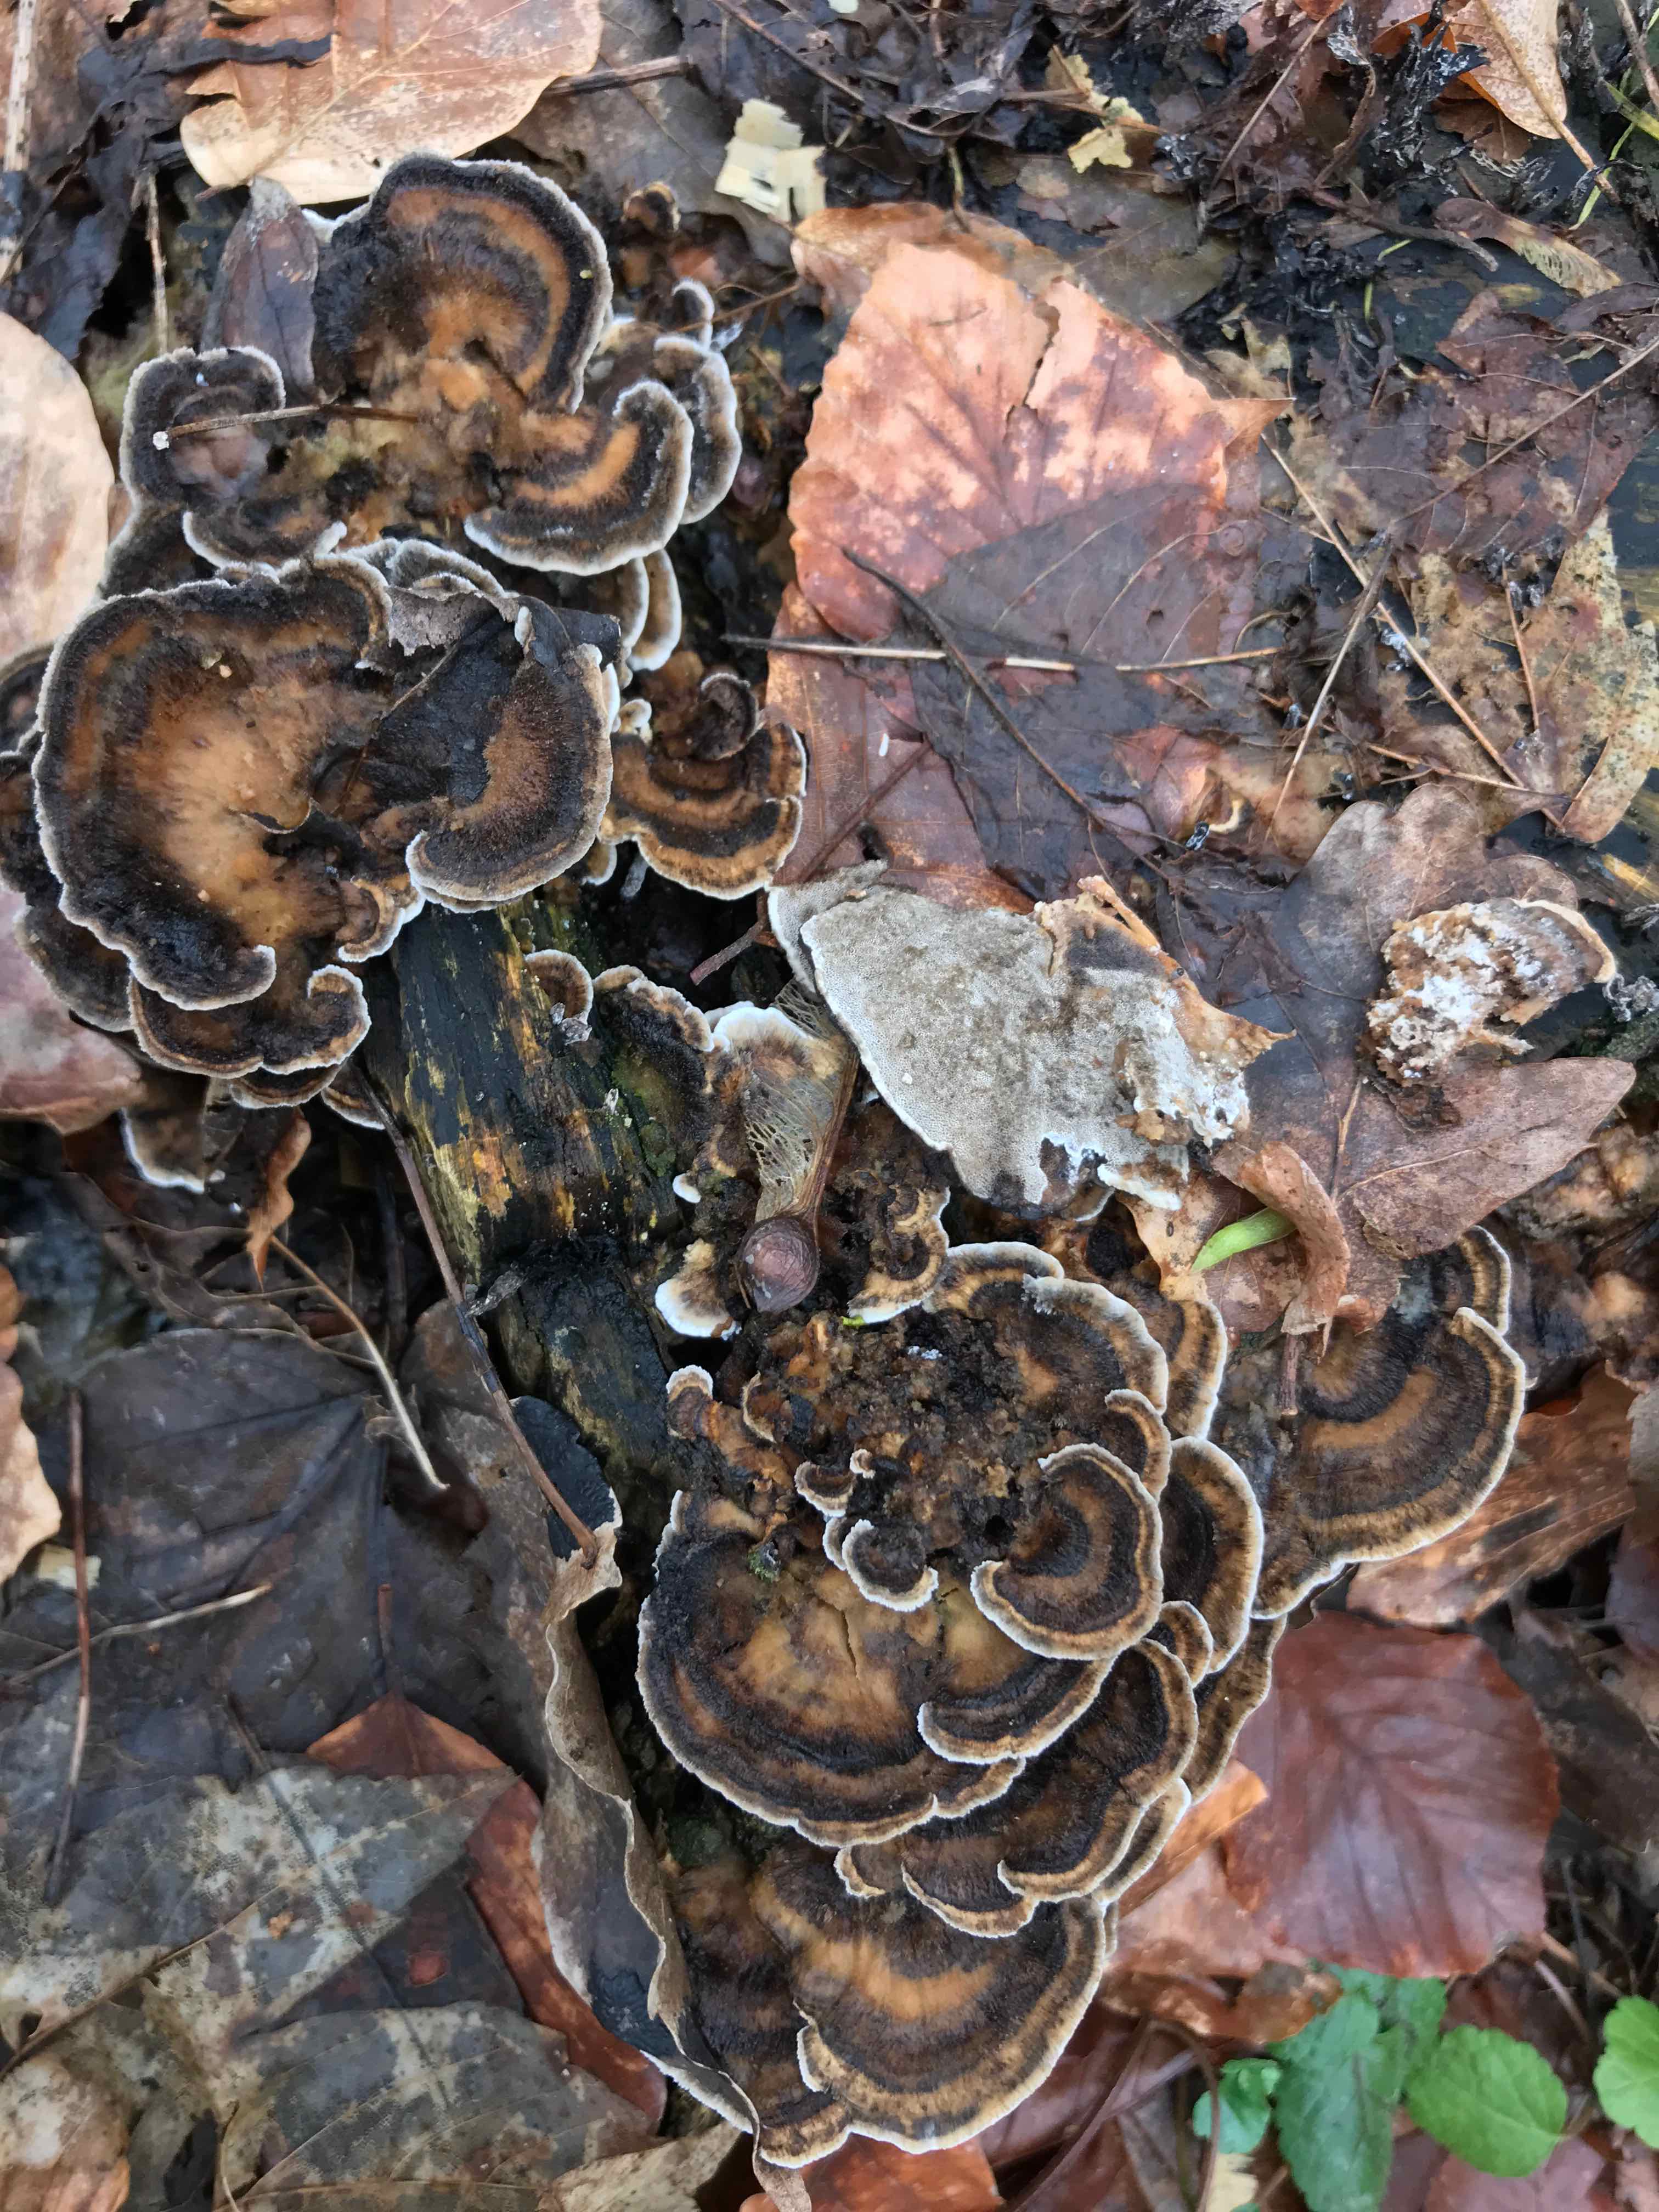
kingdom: Fungi
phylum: Basidiomycota
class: Agaricomycetes
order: Polyporales
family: Phanerochaetaceae
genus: Bjerkandera
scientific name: Bjerkandera adusta
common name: sveden sodporesvamp
